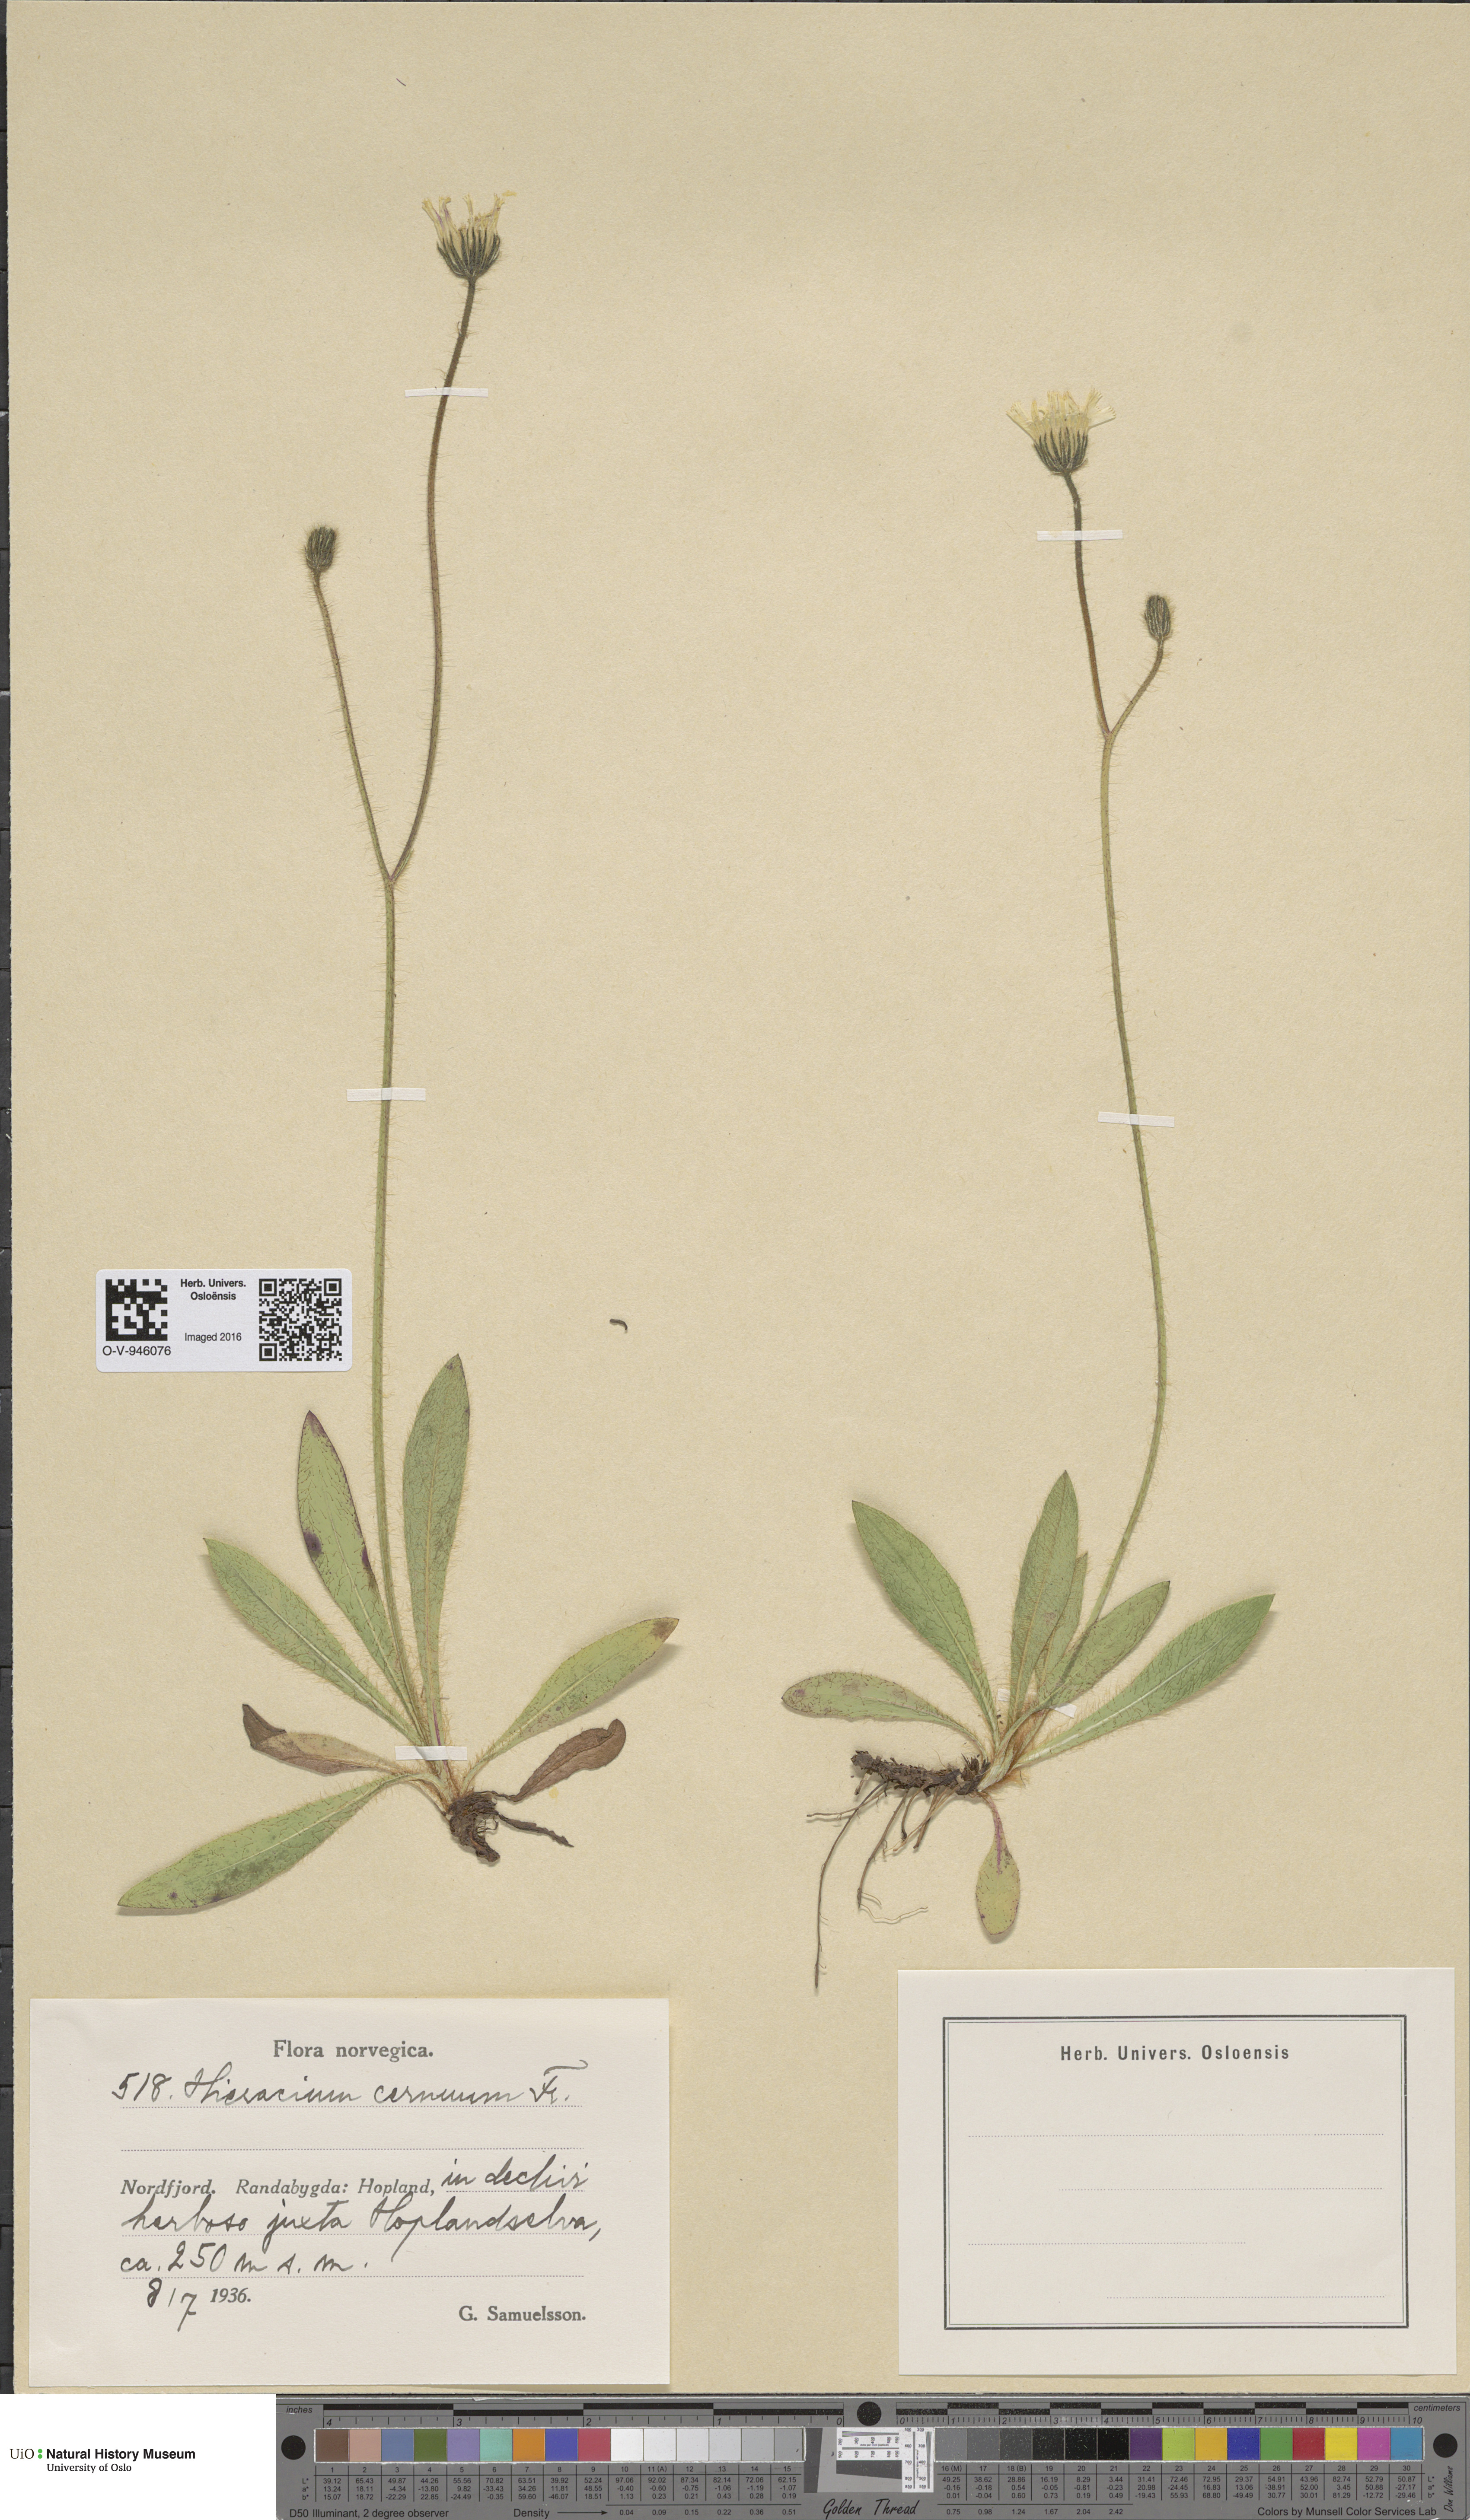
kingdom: Plantae
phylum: Tracheophyta
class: Magnoliopsida
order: Asterales
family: Asteraceae
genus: Pilosella
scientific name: Pilosella peteriana
